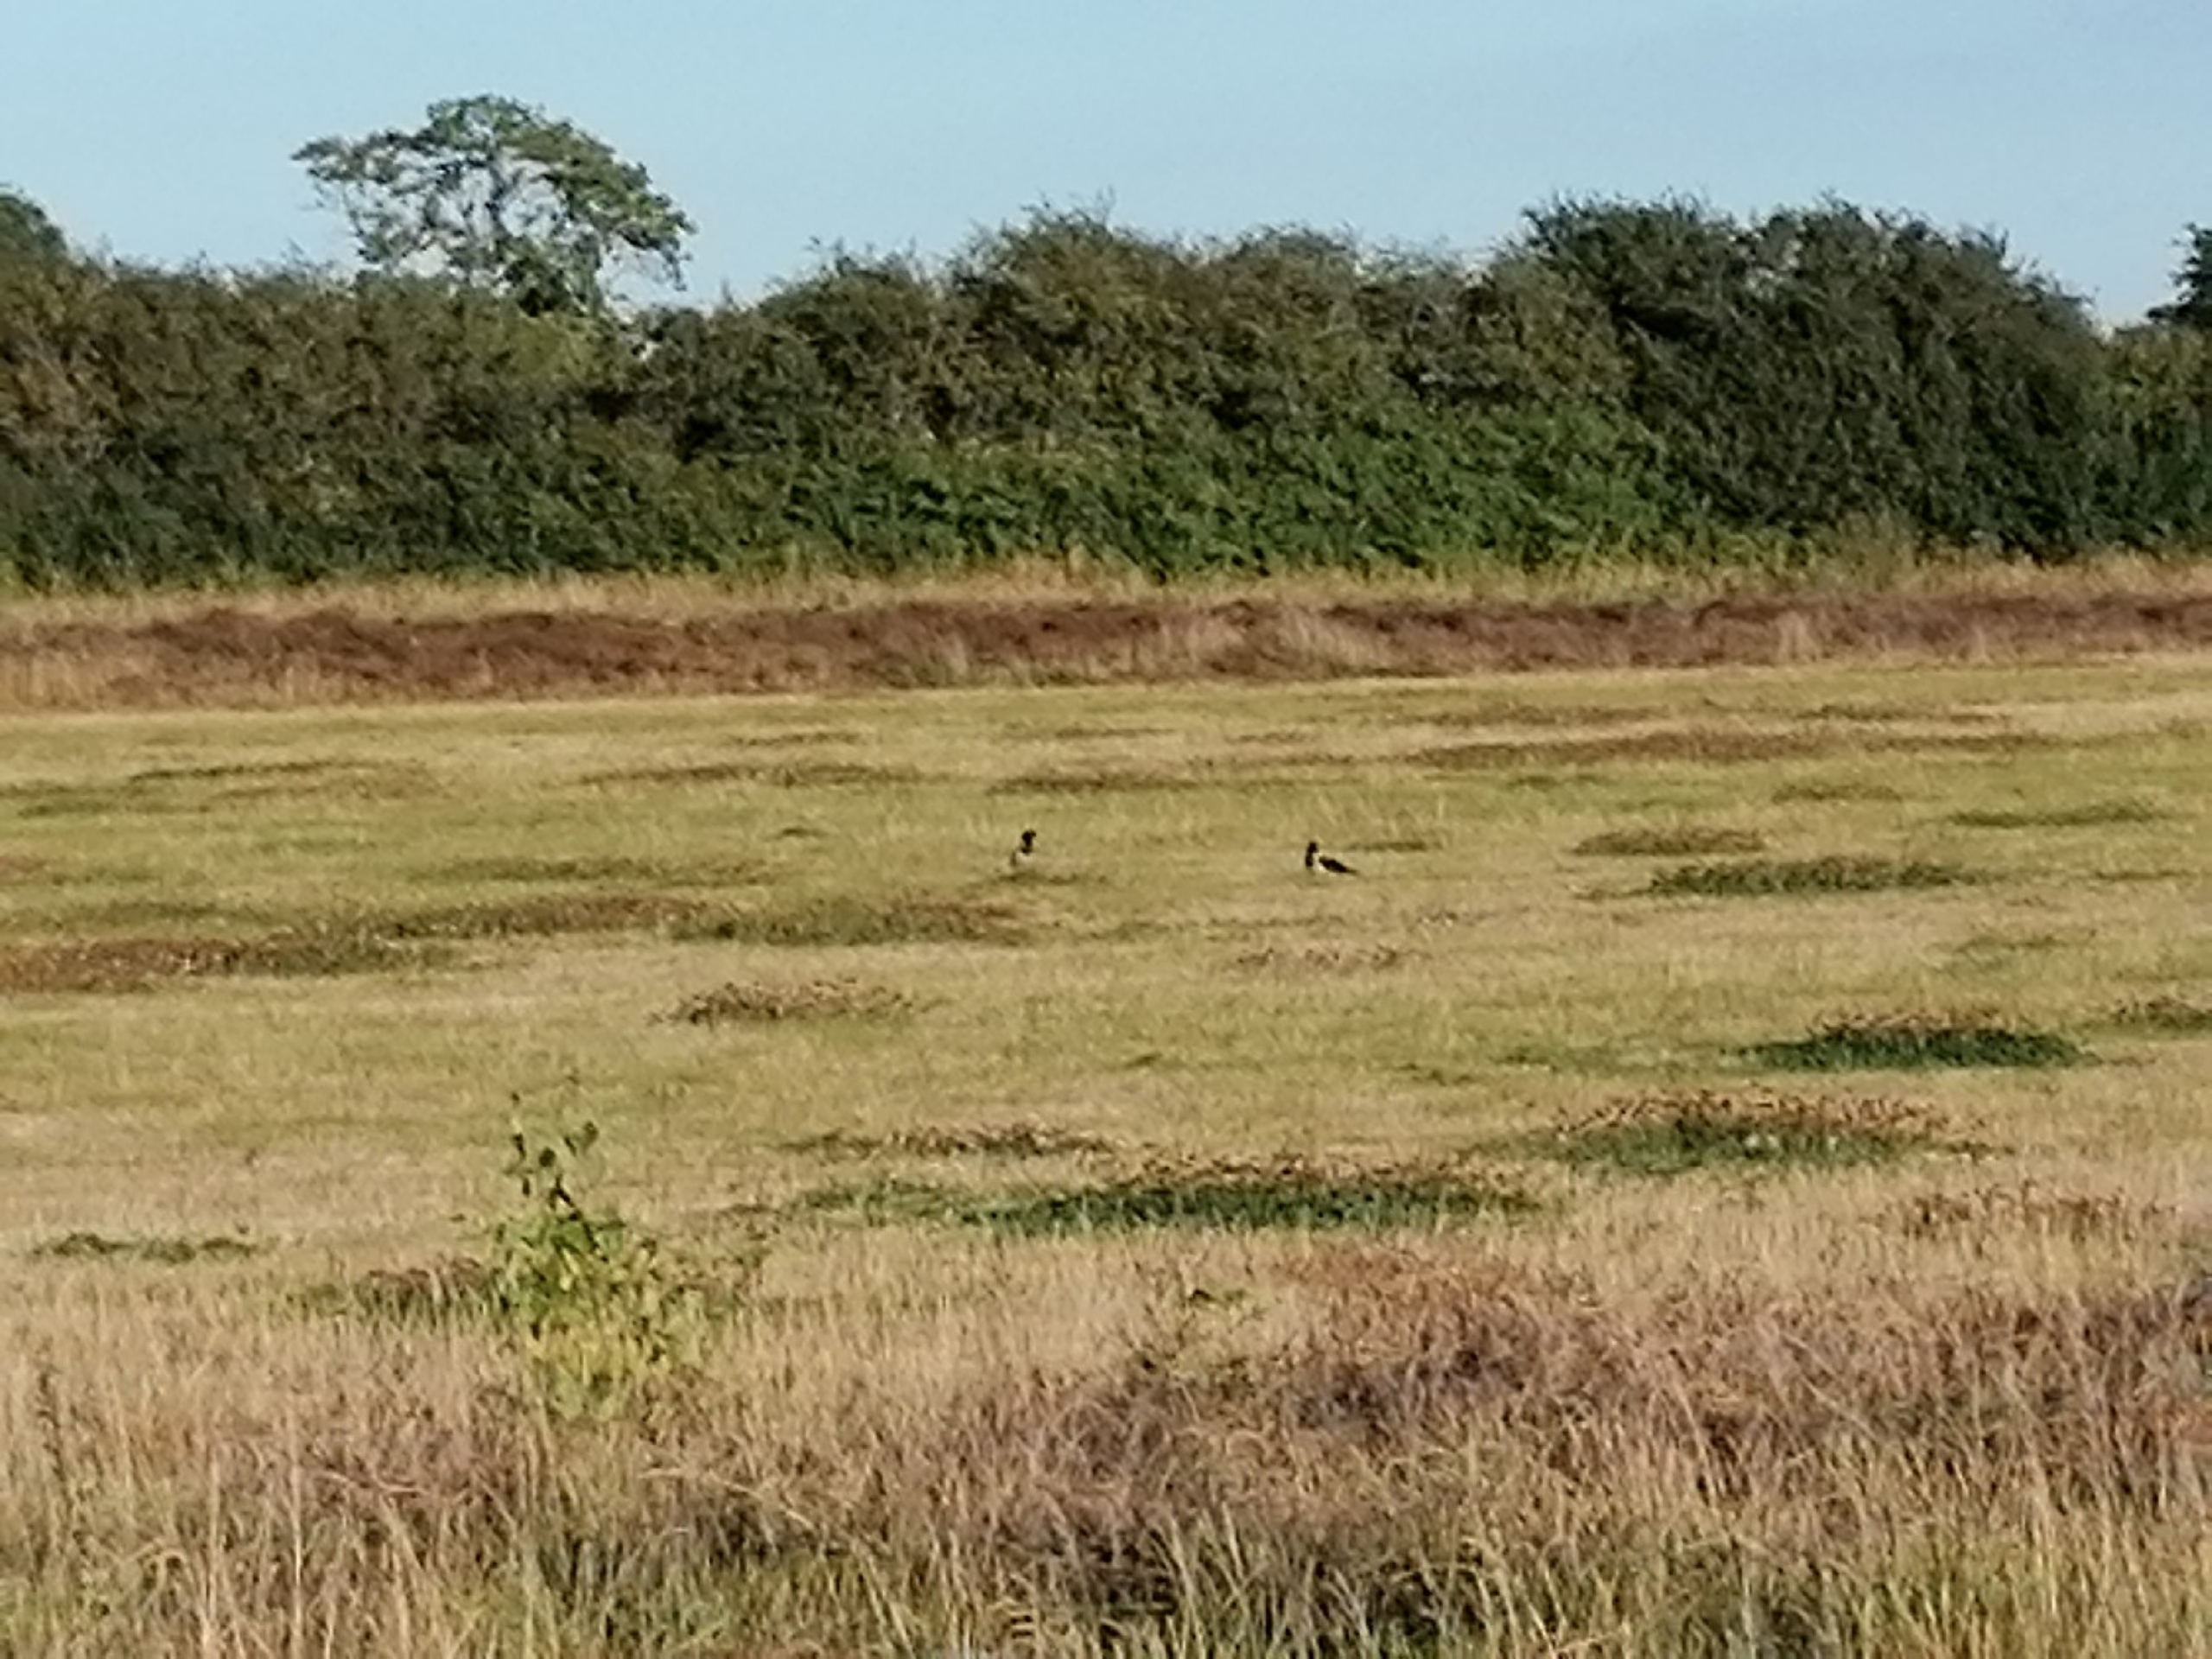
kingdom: Animalia
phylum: Chordata
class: Aves
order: Passeriformes
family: Corvidae
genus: Corvus
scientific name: Corvus cornix
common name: Gråkrage
